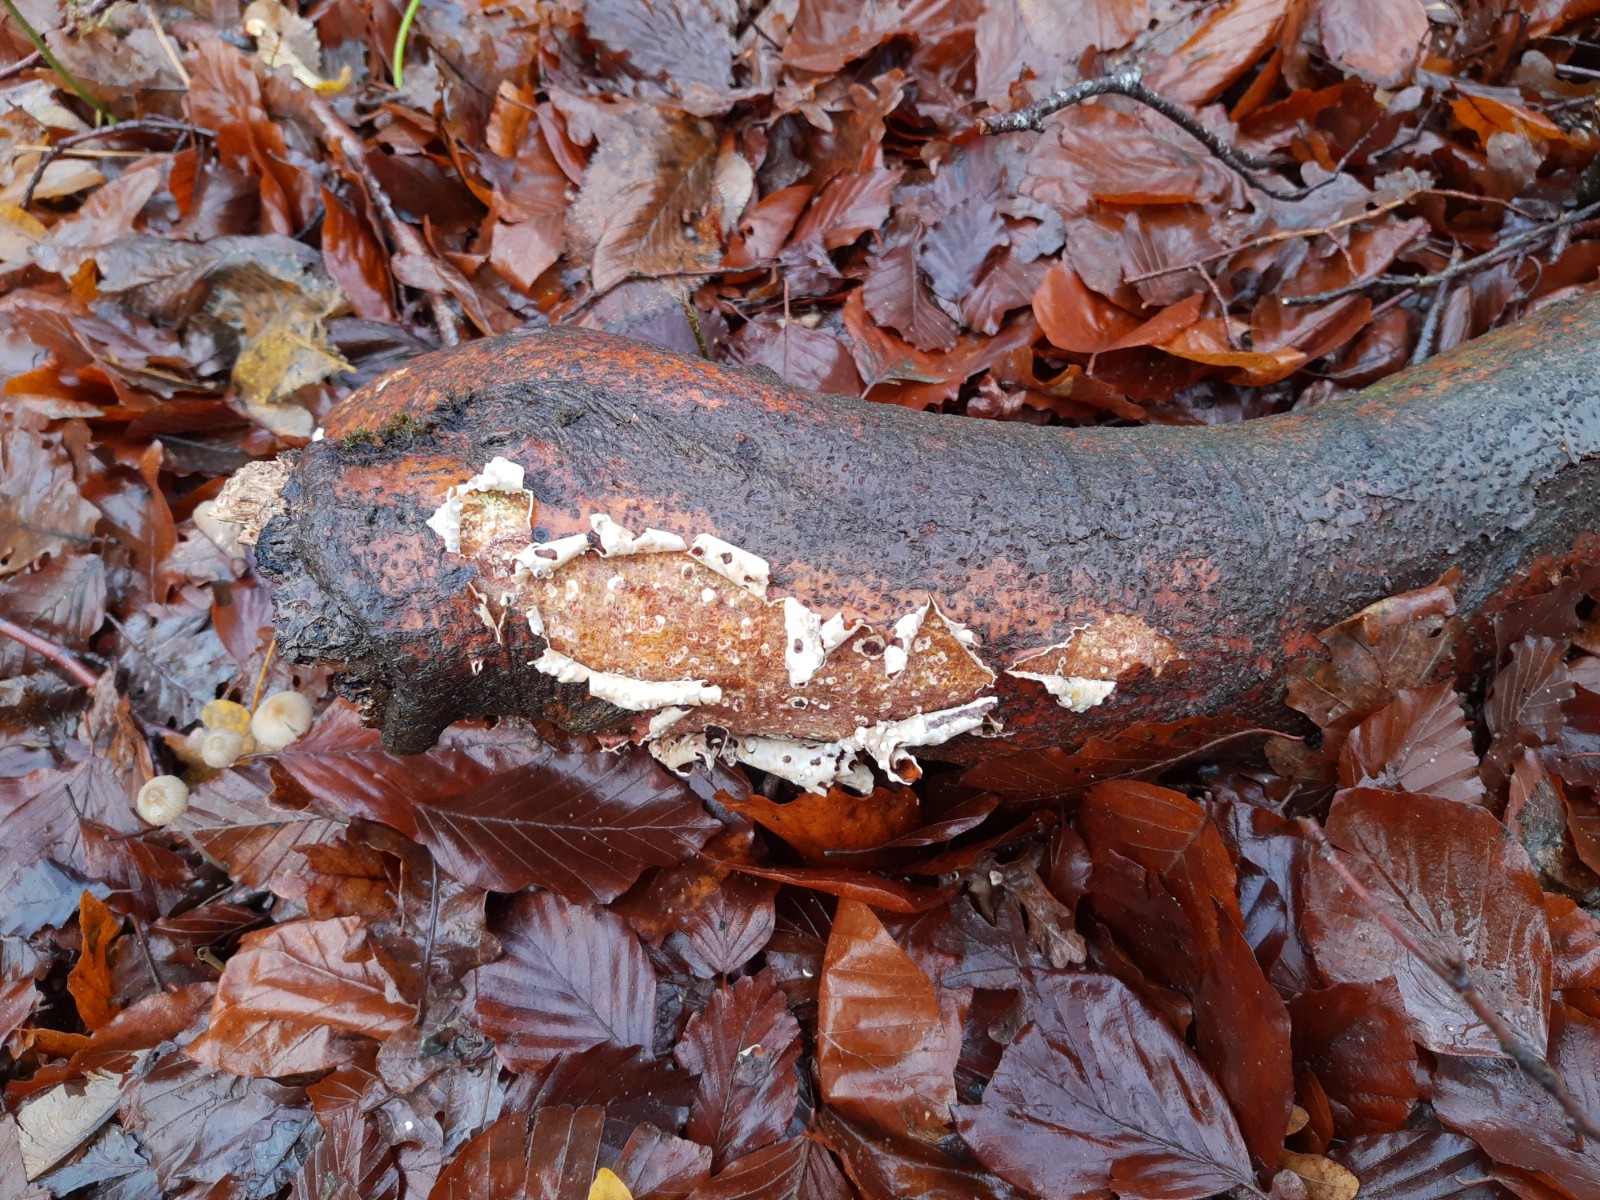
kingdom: Fungi
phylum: Basidiomycota
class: Agaricomycetes
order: Corticiales
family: Vuilleminiaceae
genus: Vuilleminia
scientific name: Vuilleminia comedens
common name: almindelig barksprænger
